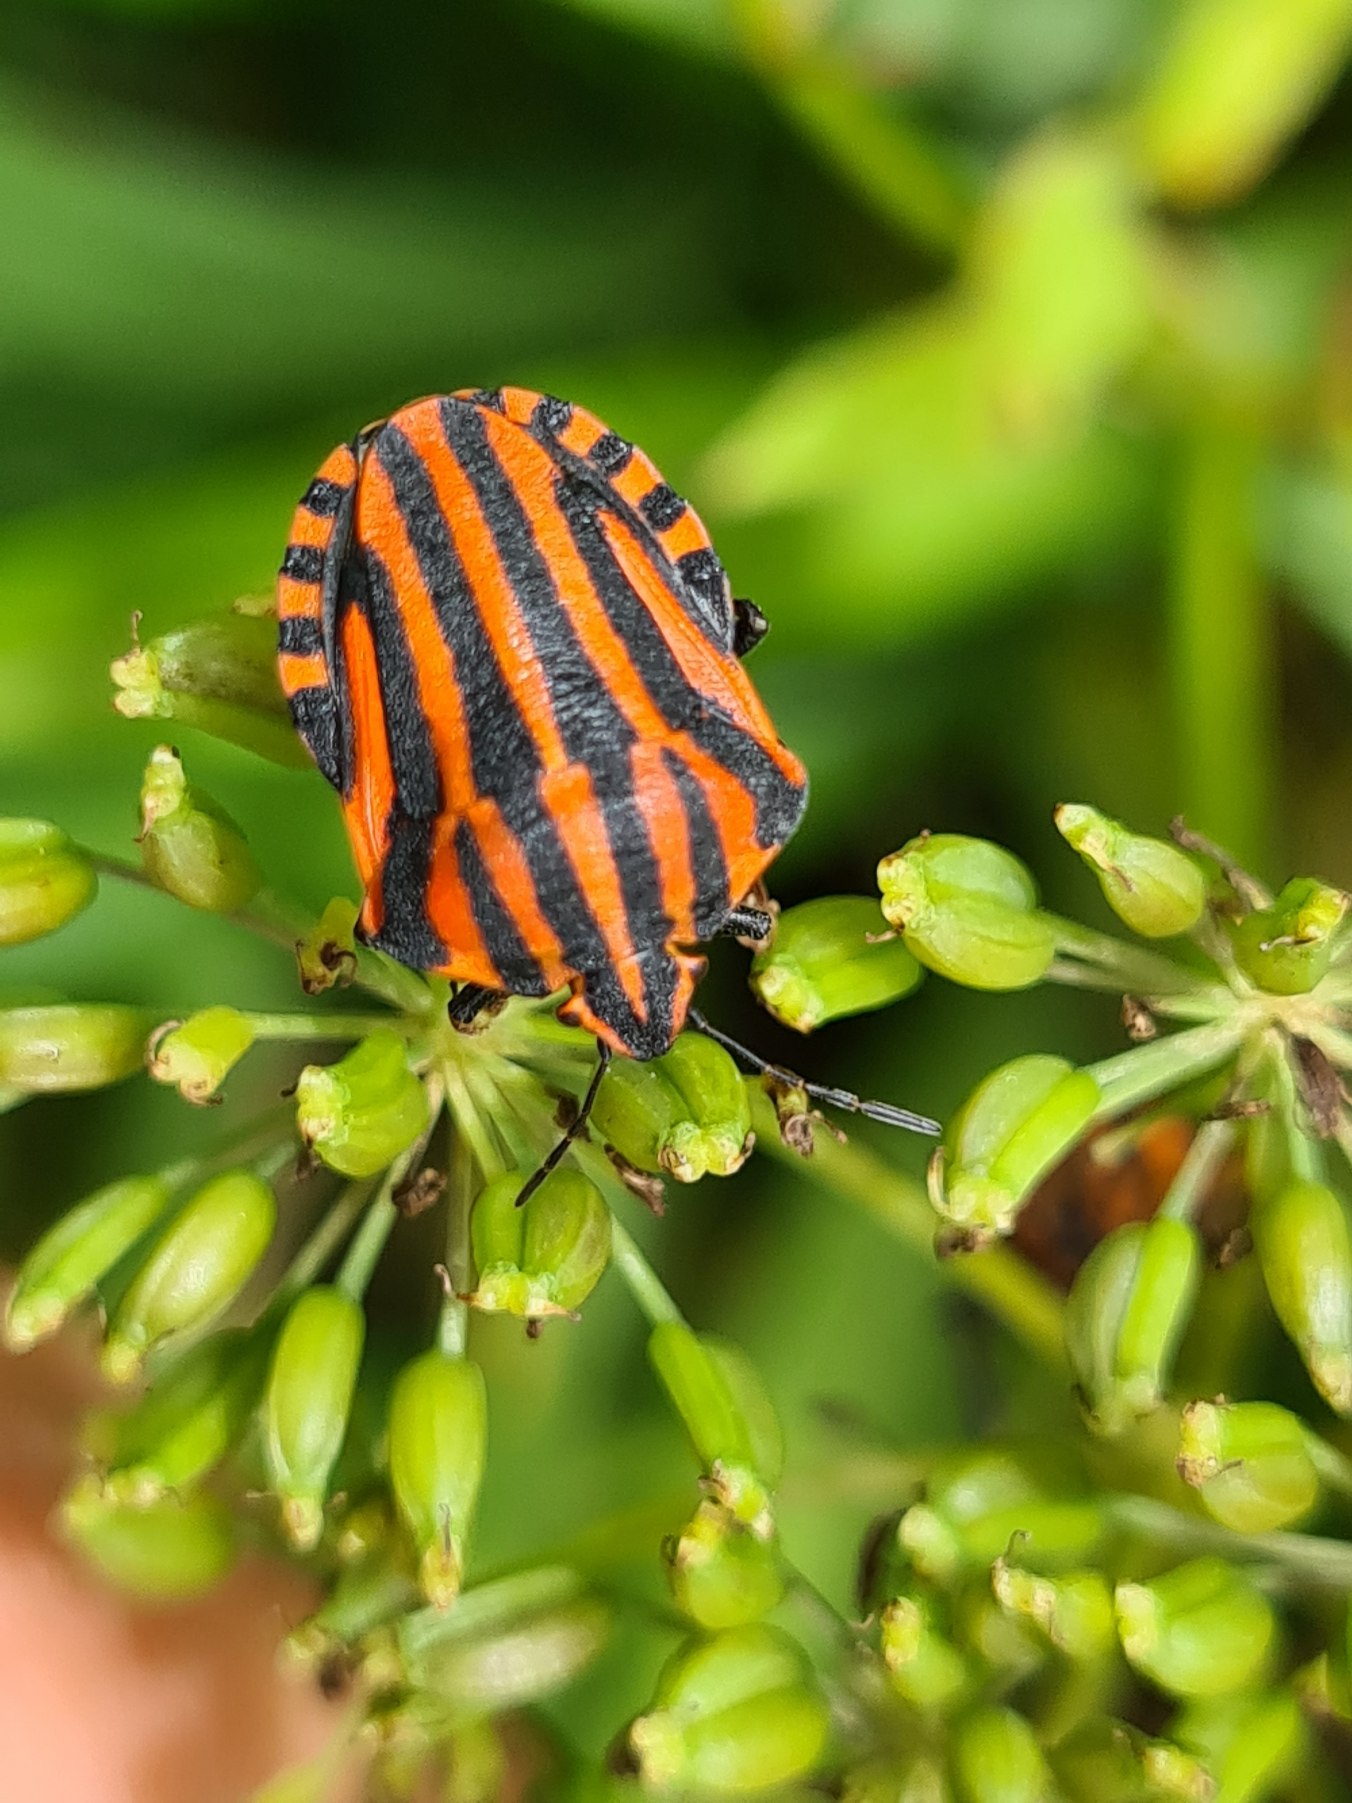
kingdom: Animalia
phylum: Arthropoda
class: Insecta
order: Hemiptera
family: Pentatomidae
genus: Graphosoma
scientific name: Graphosoma italicum
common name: Stribetæge
